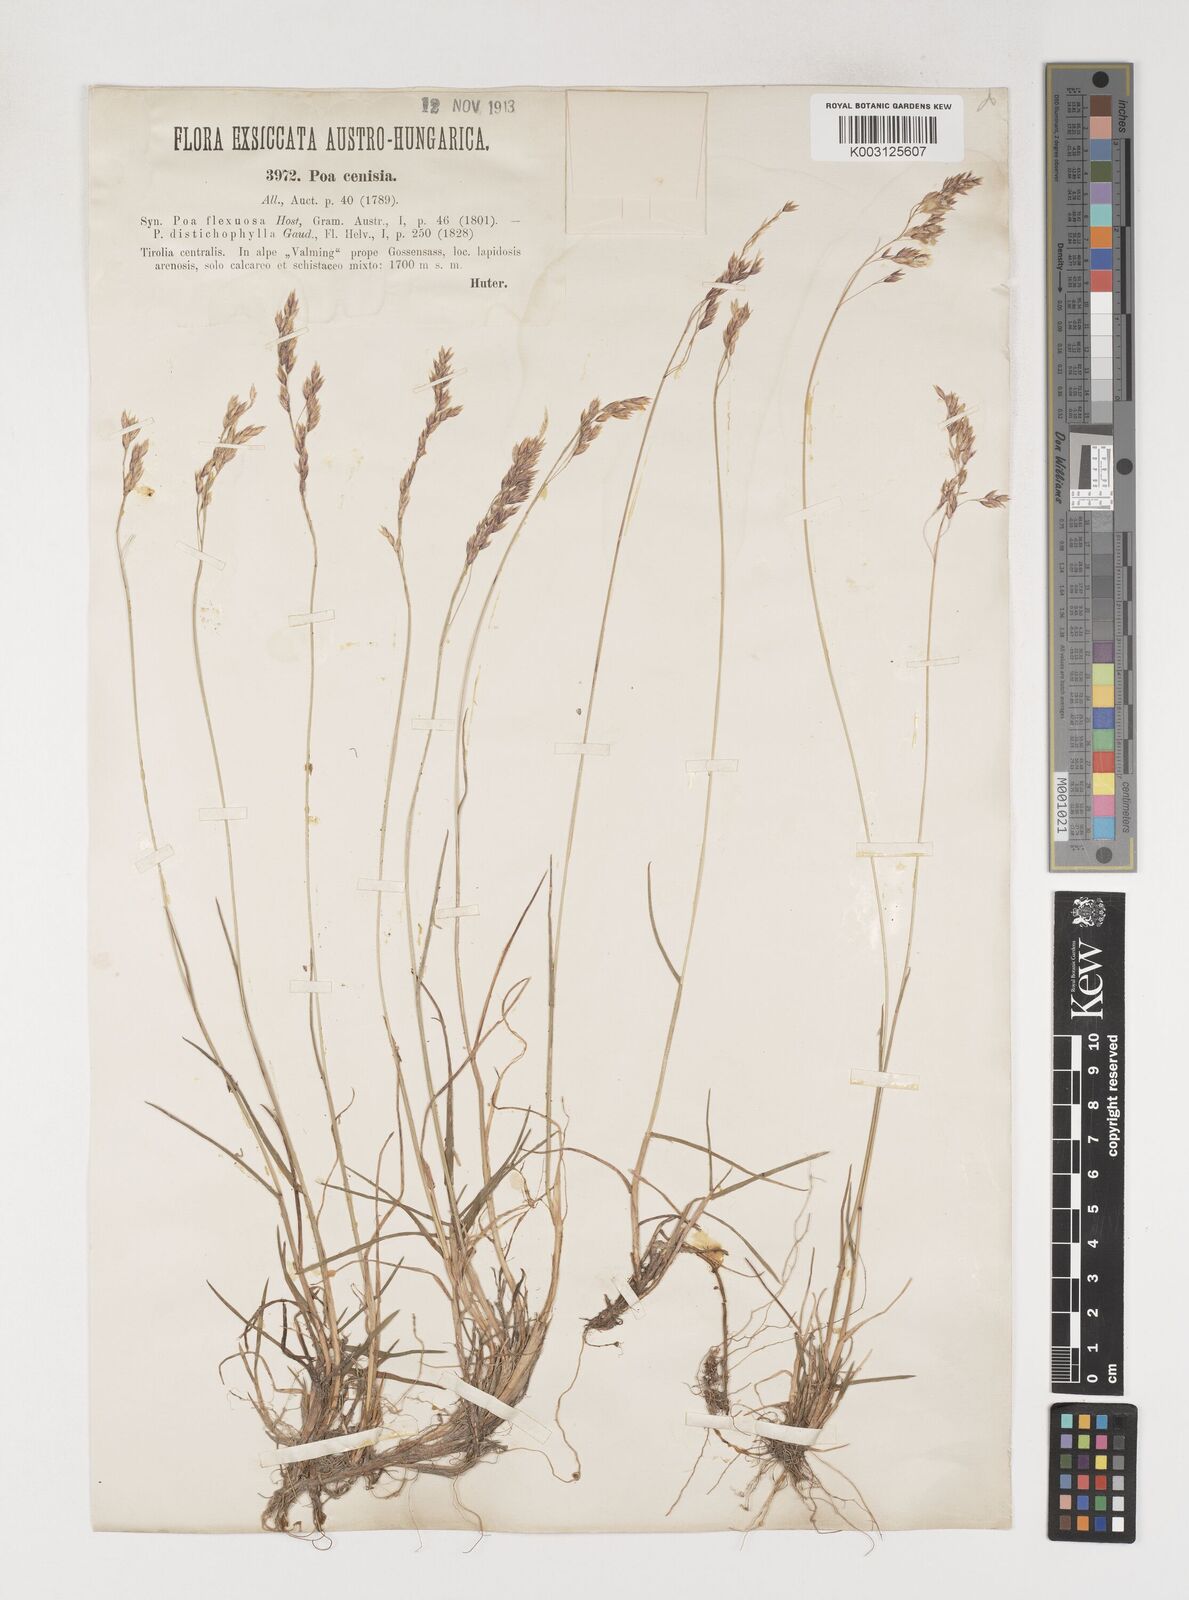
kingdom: Plantae
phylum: Tracheophyta
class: Liliopsida
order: Poales
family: Poaceae
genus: Poa
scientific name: Poa cenisia
